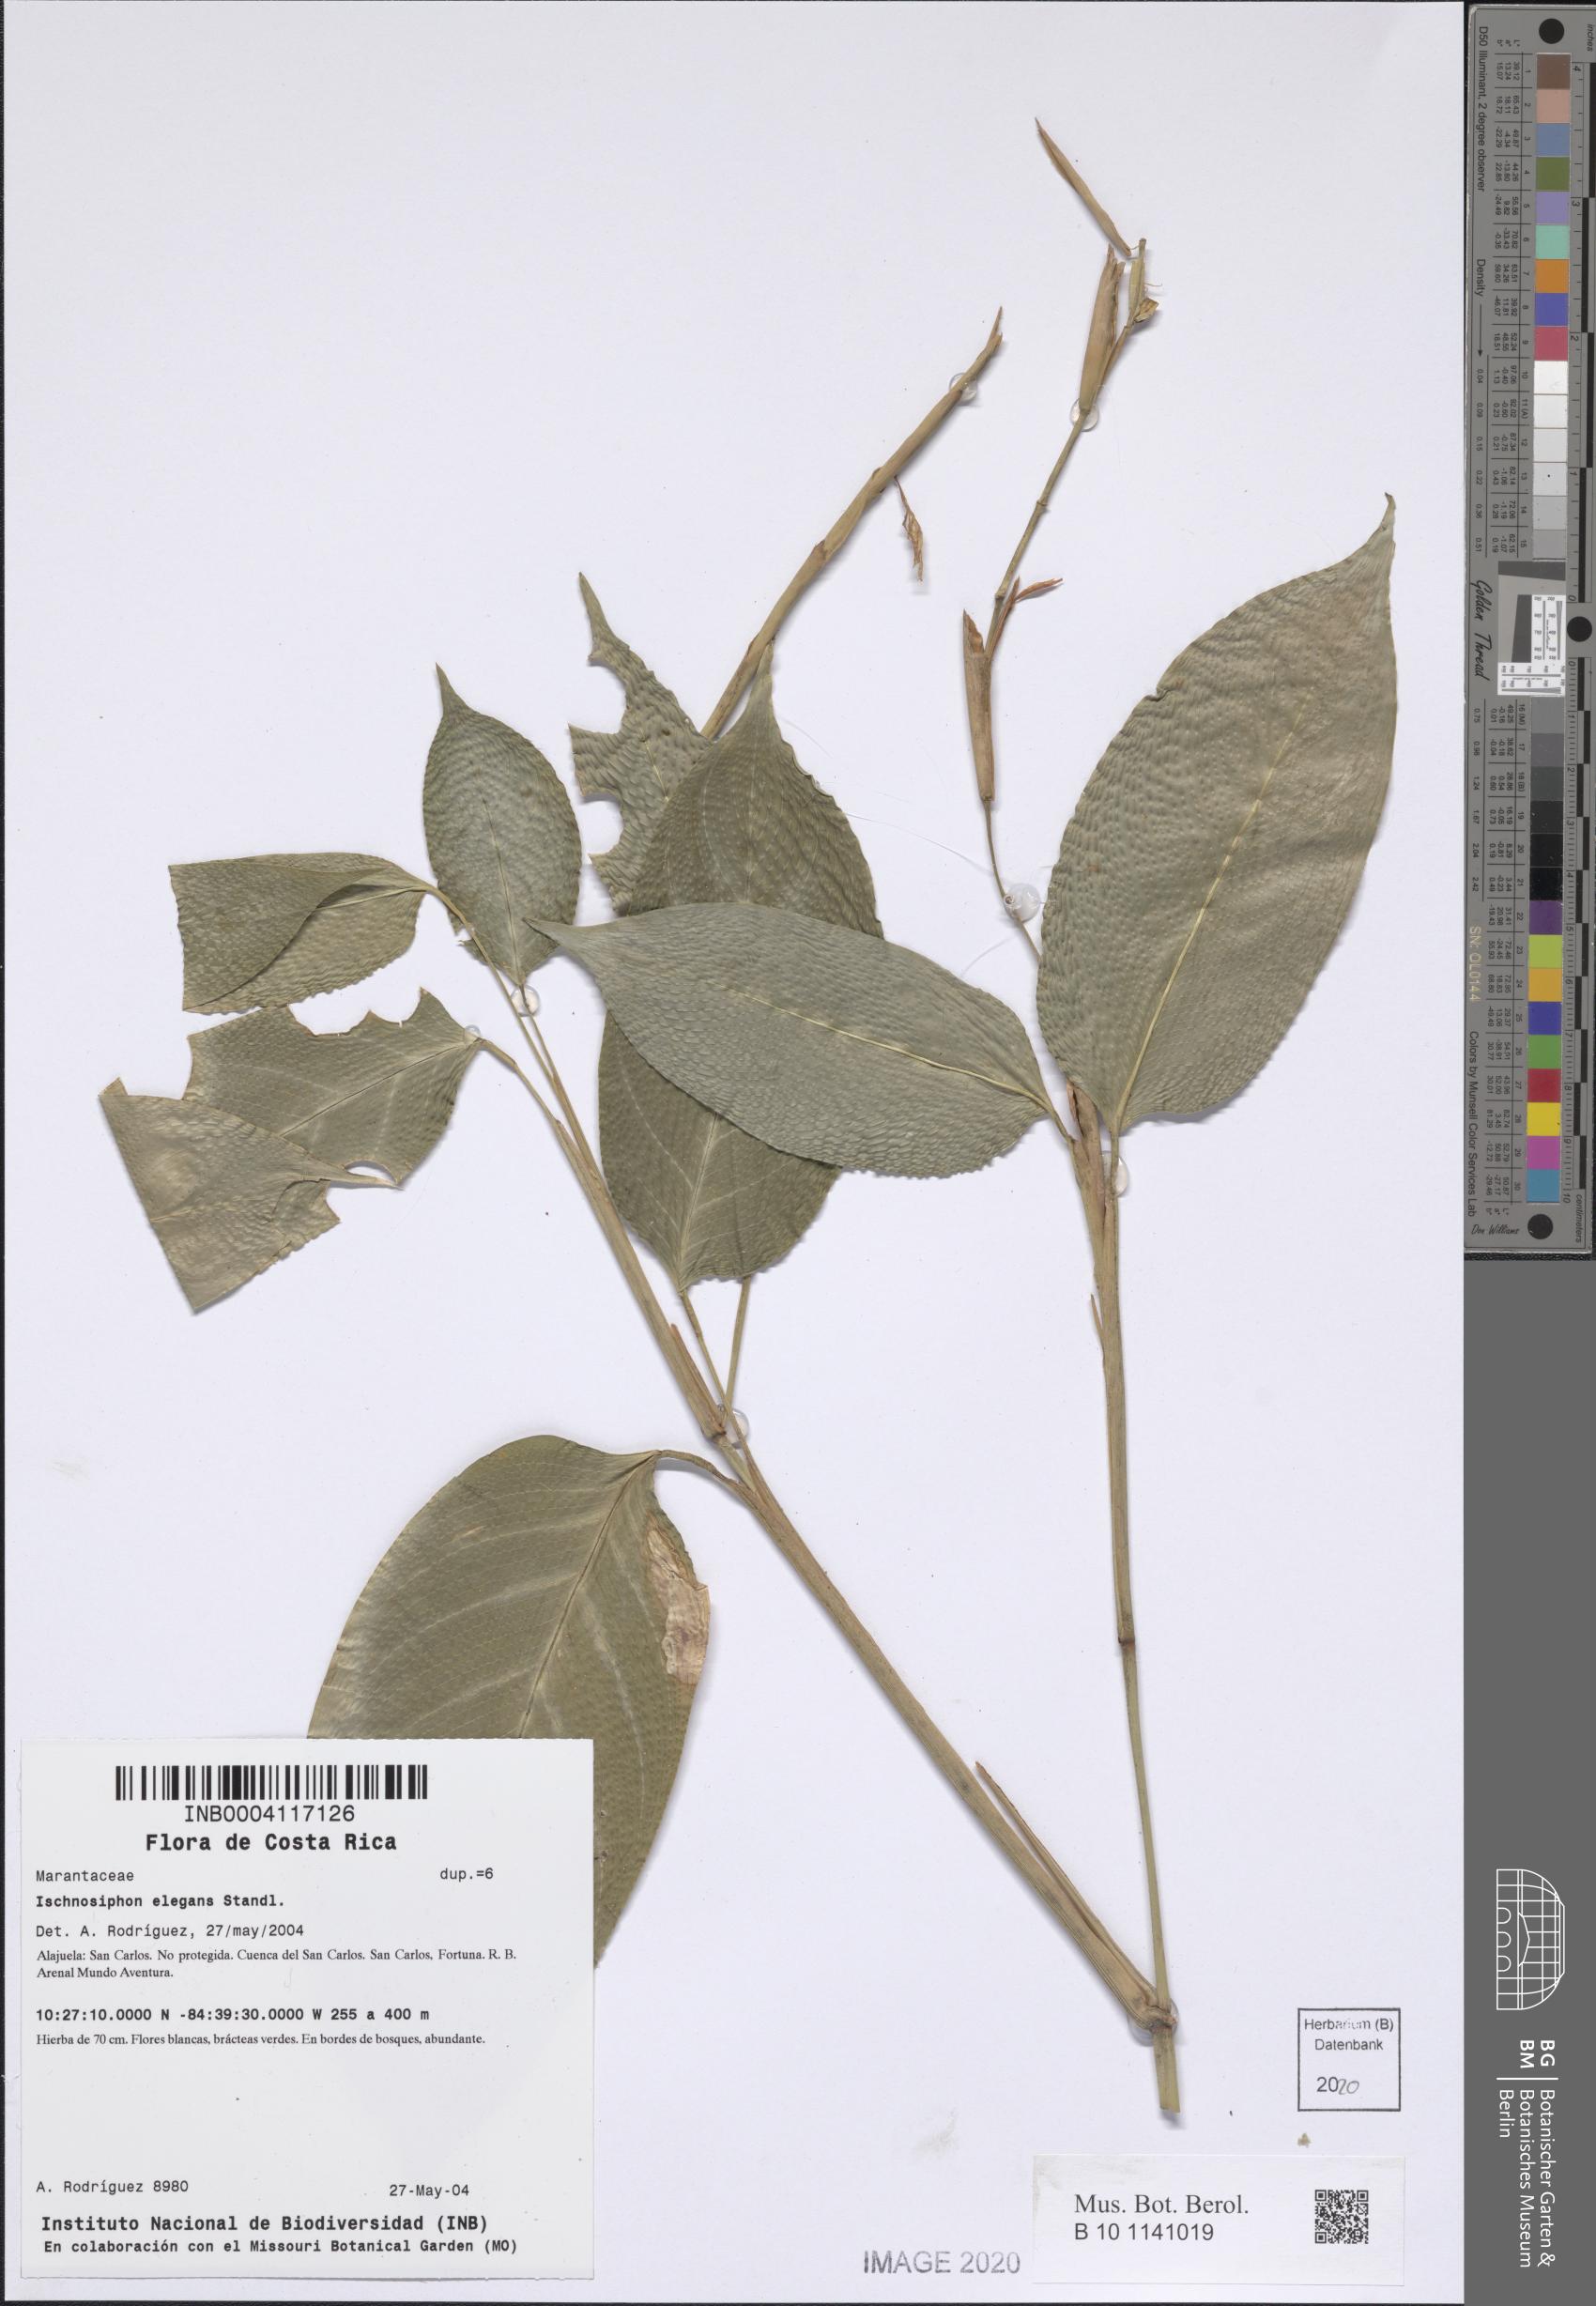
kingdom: Plantae
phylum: Tracheophyta
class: Liliopsida
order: Zingiberales
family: Marantaceae
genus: Ischnosiphon
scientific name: Ischnosiphon elegans
